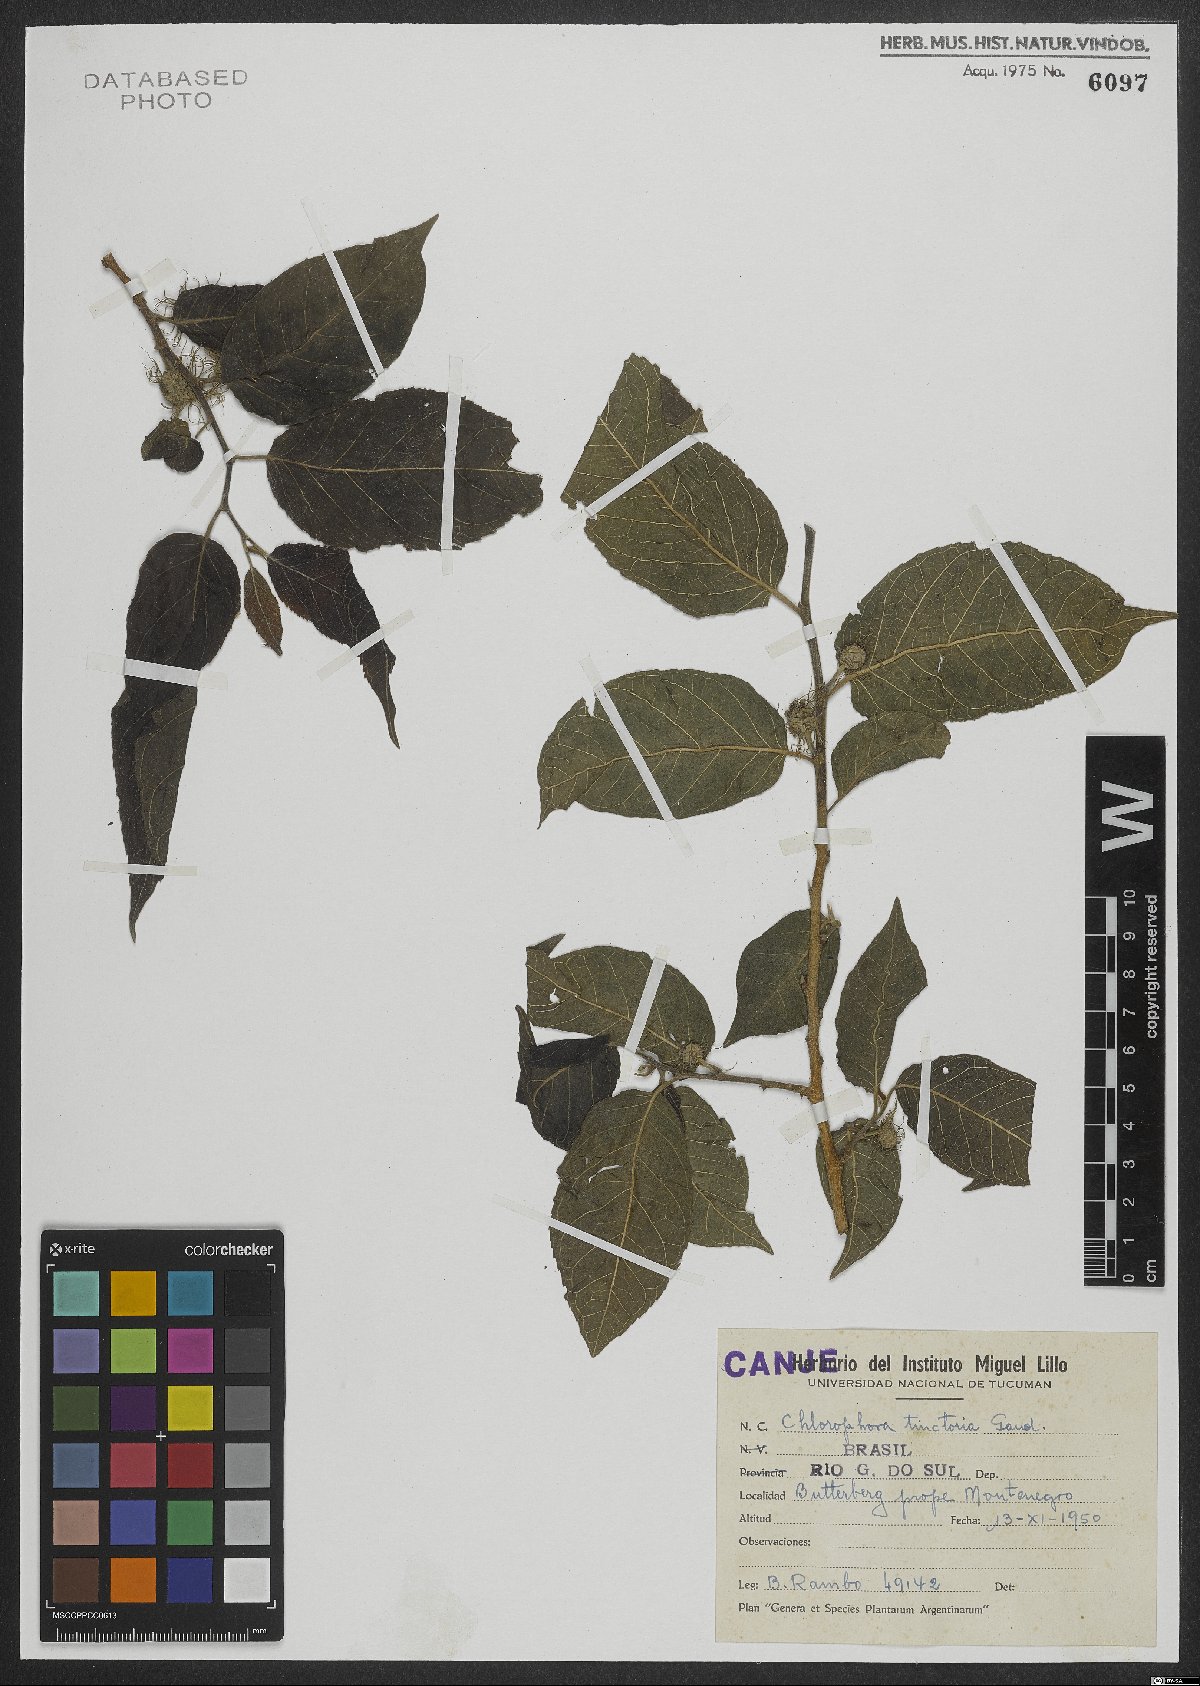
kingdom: Plantae
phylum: Tracheophyta
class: Magnoliopsida
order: Rosales
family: Moraceae
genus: Maclura
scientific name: Maclura tinctoria
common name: Old fustic
